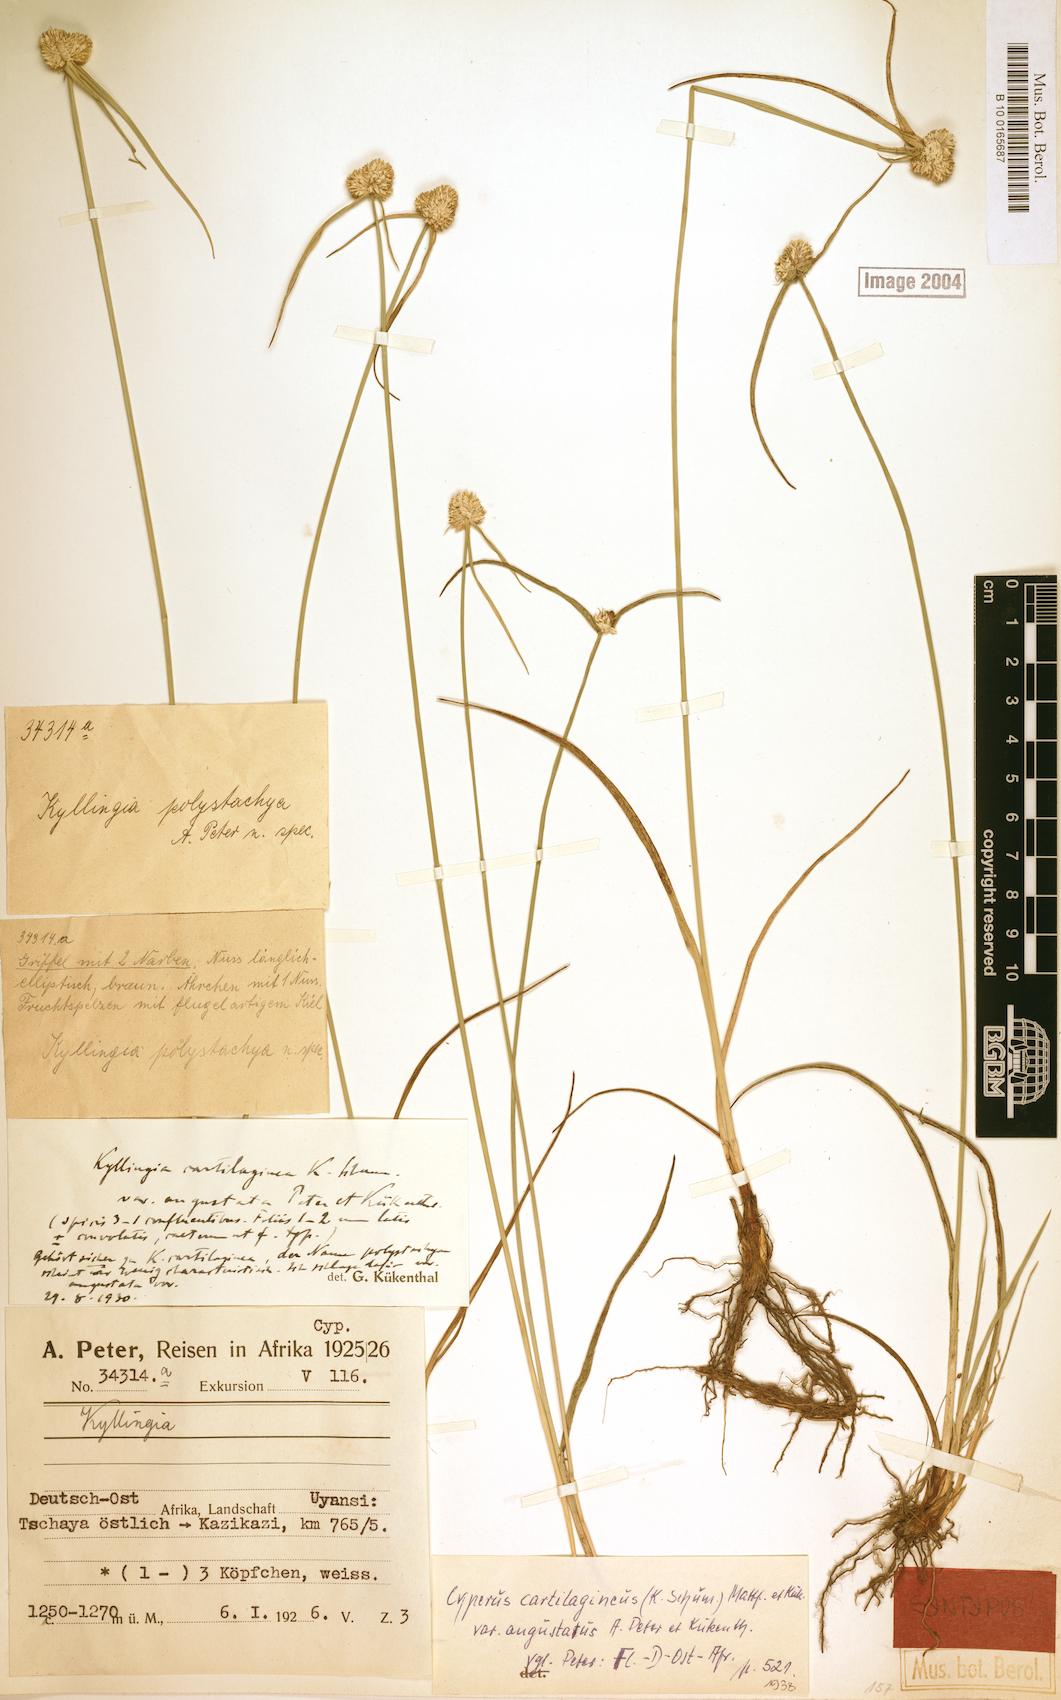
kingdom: Plantae
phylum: Tracheophyta
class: Liliopsida
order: Poales
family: Cyperaceae
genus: Cyperus
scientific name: Cyperus comosipes
